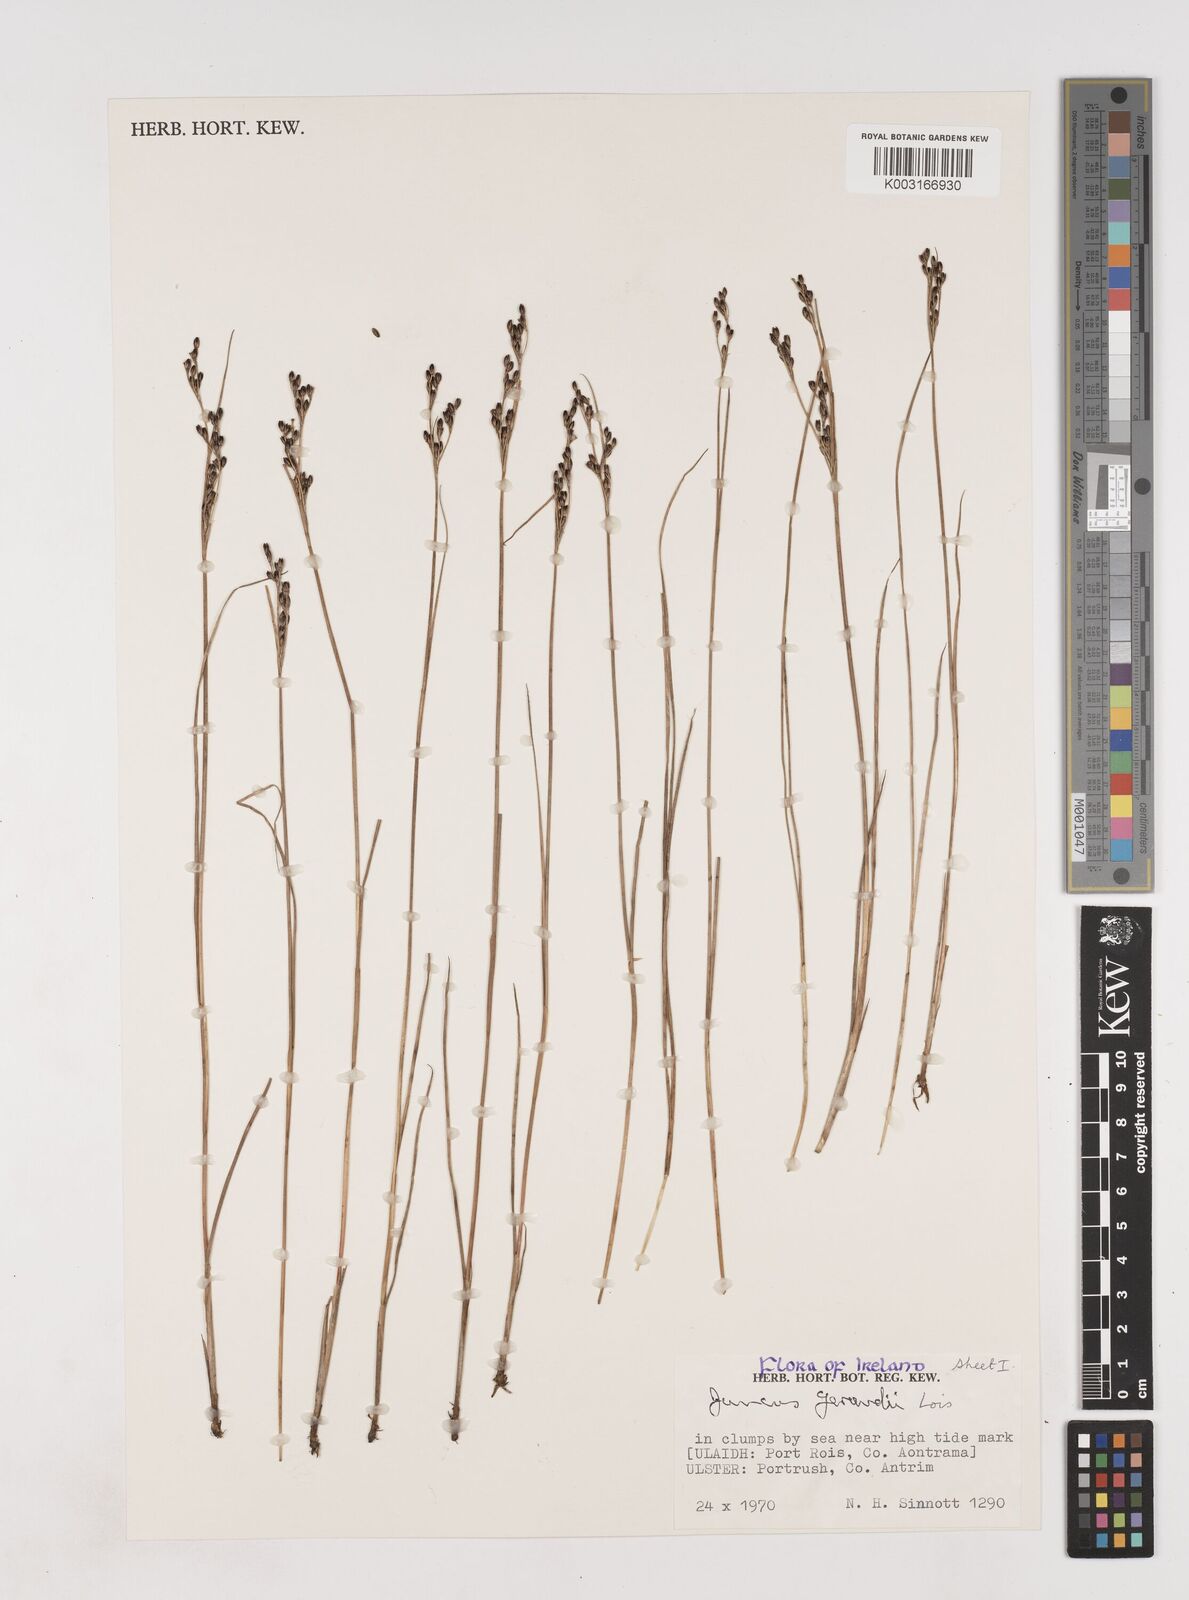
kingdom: Plantae
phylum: Tracheophyta
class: Liliopsida
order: Poales
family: Juncaceae
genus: Juncus
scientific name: Juncus gerardi
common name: Saltmarsh rush
